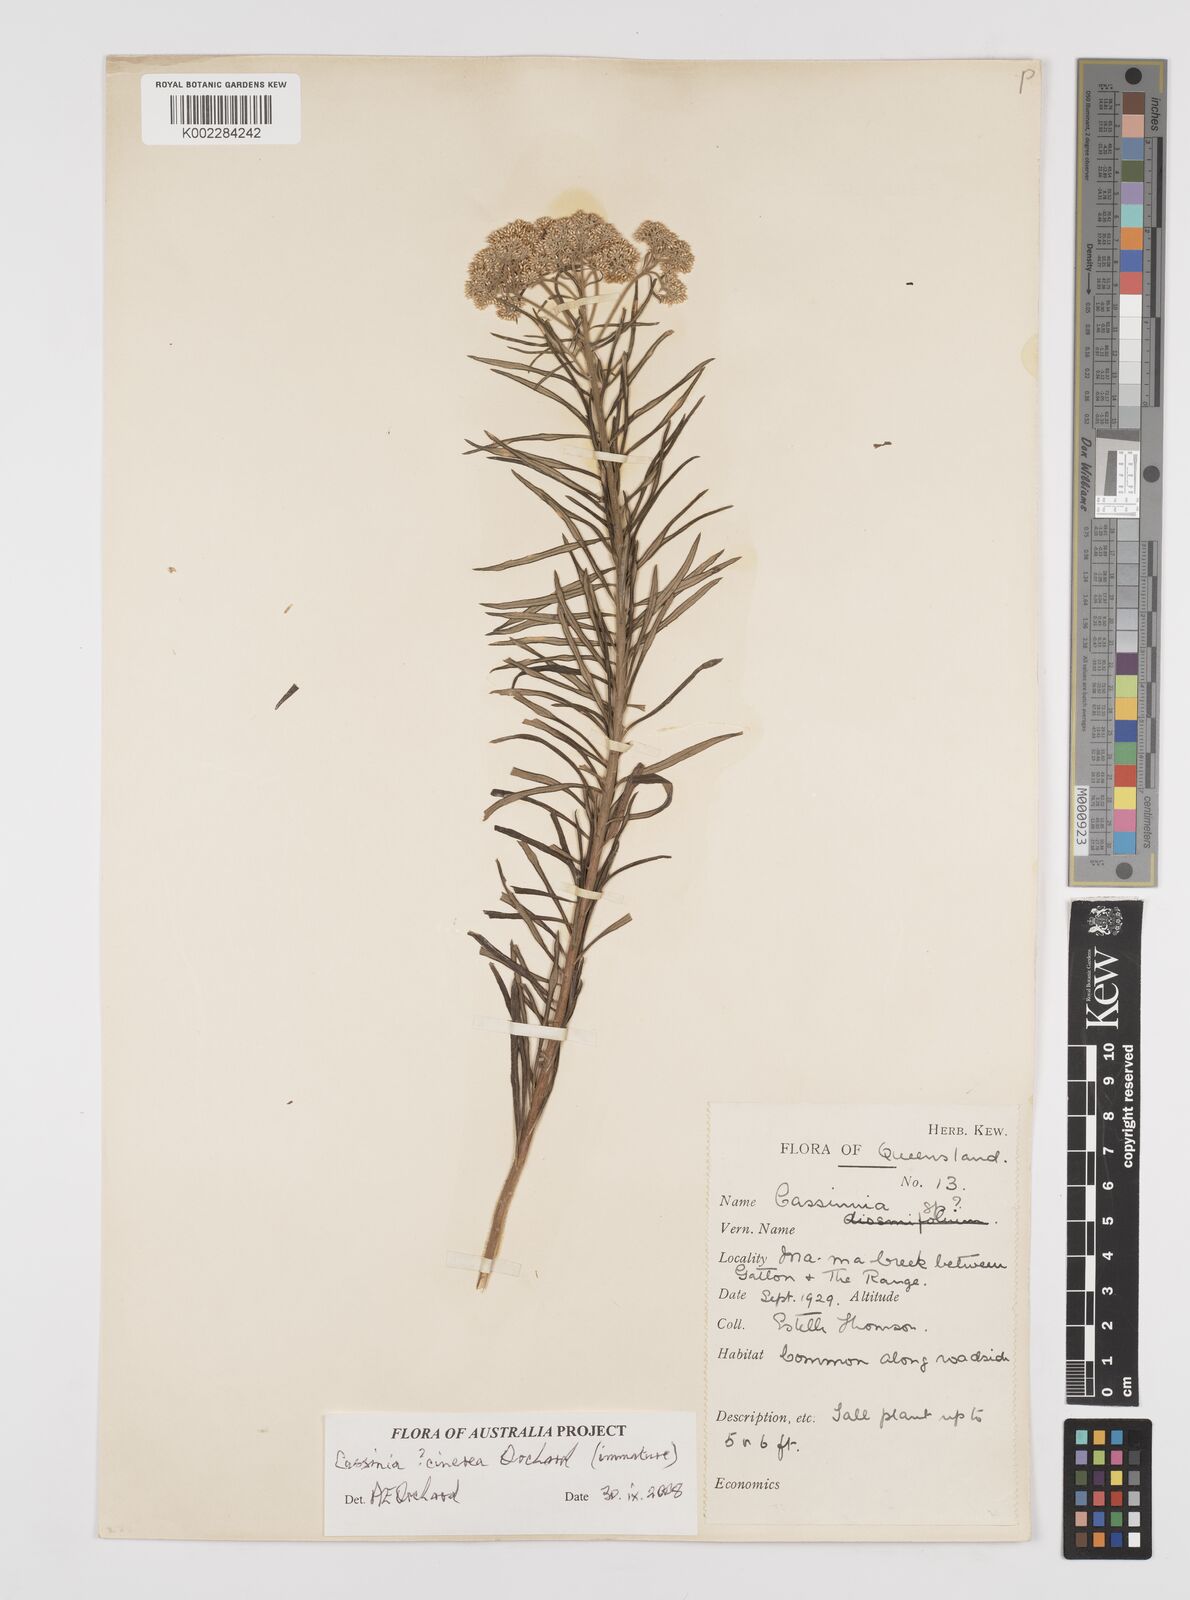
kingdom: Plantae
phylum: Tracheophyta
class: Magnoliopsida
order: Asterales
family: Asteraceae
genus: Cassinia
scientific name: Cassinia cinerea
